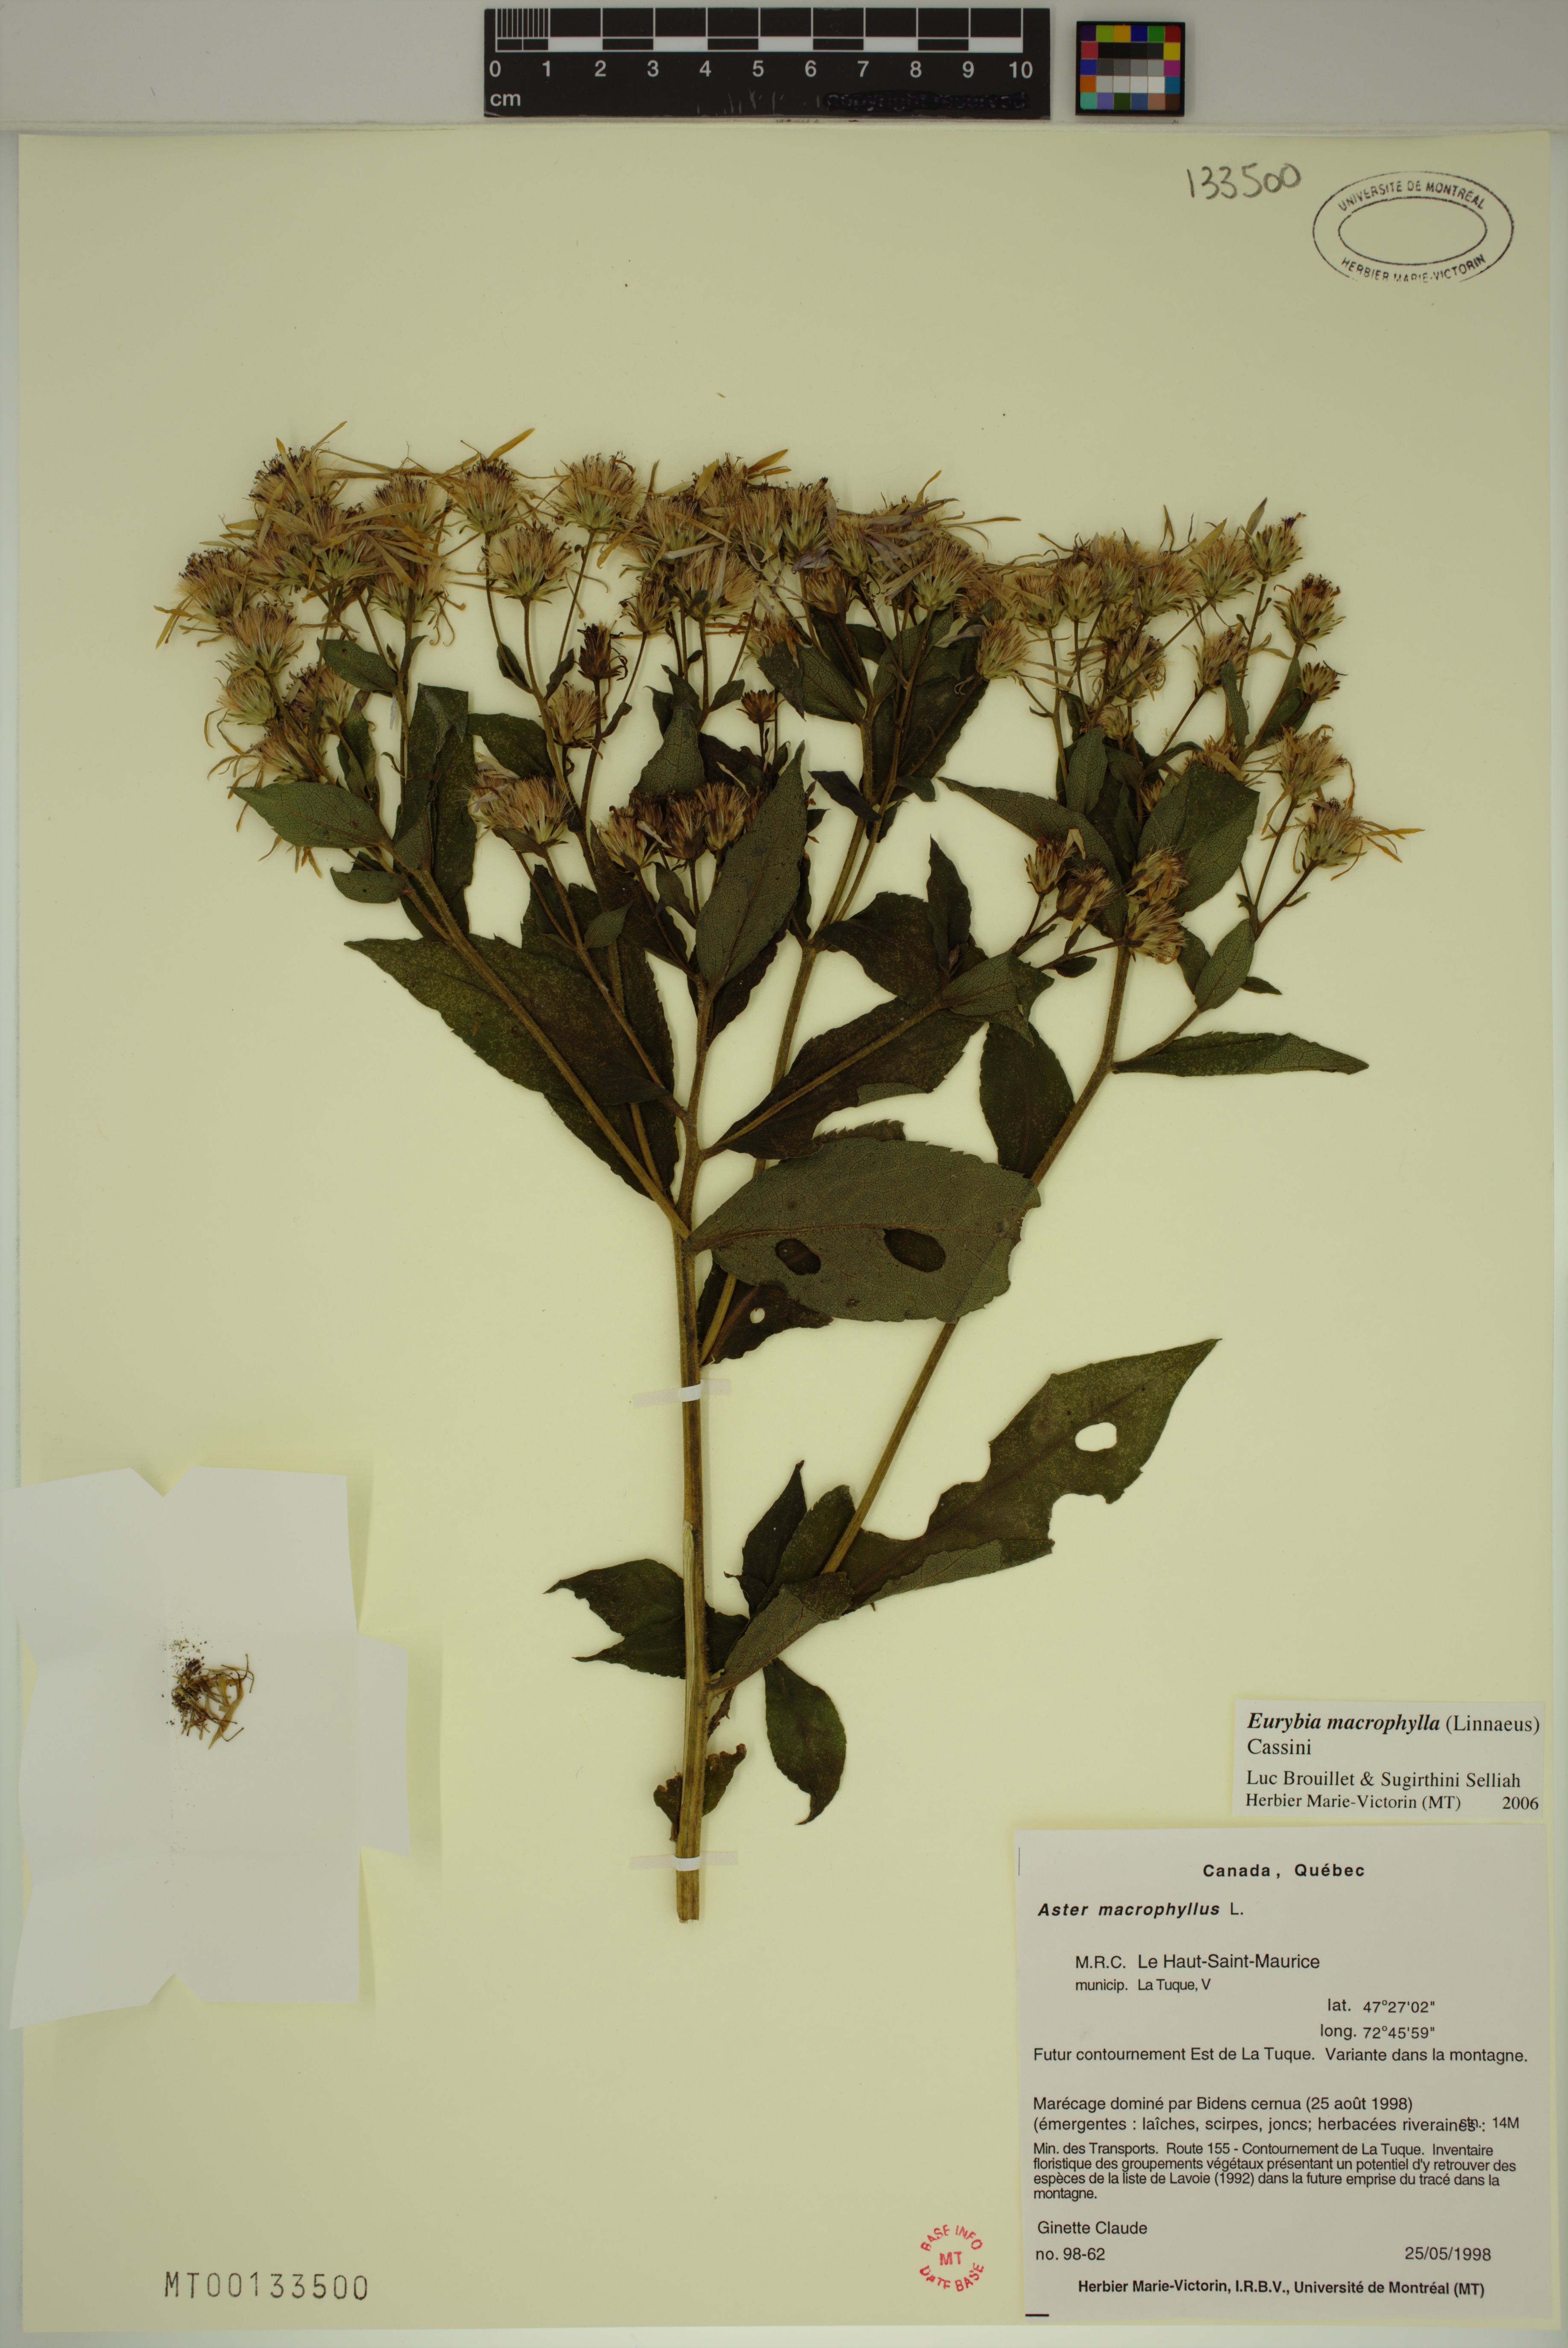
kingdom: Plantae
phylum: Tracheophyta
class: Magnoliopsida
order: Asterales
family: Asteraceae
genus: Eurybia
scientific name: Eurybia macrophylla
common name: Big-leaved aster
